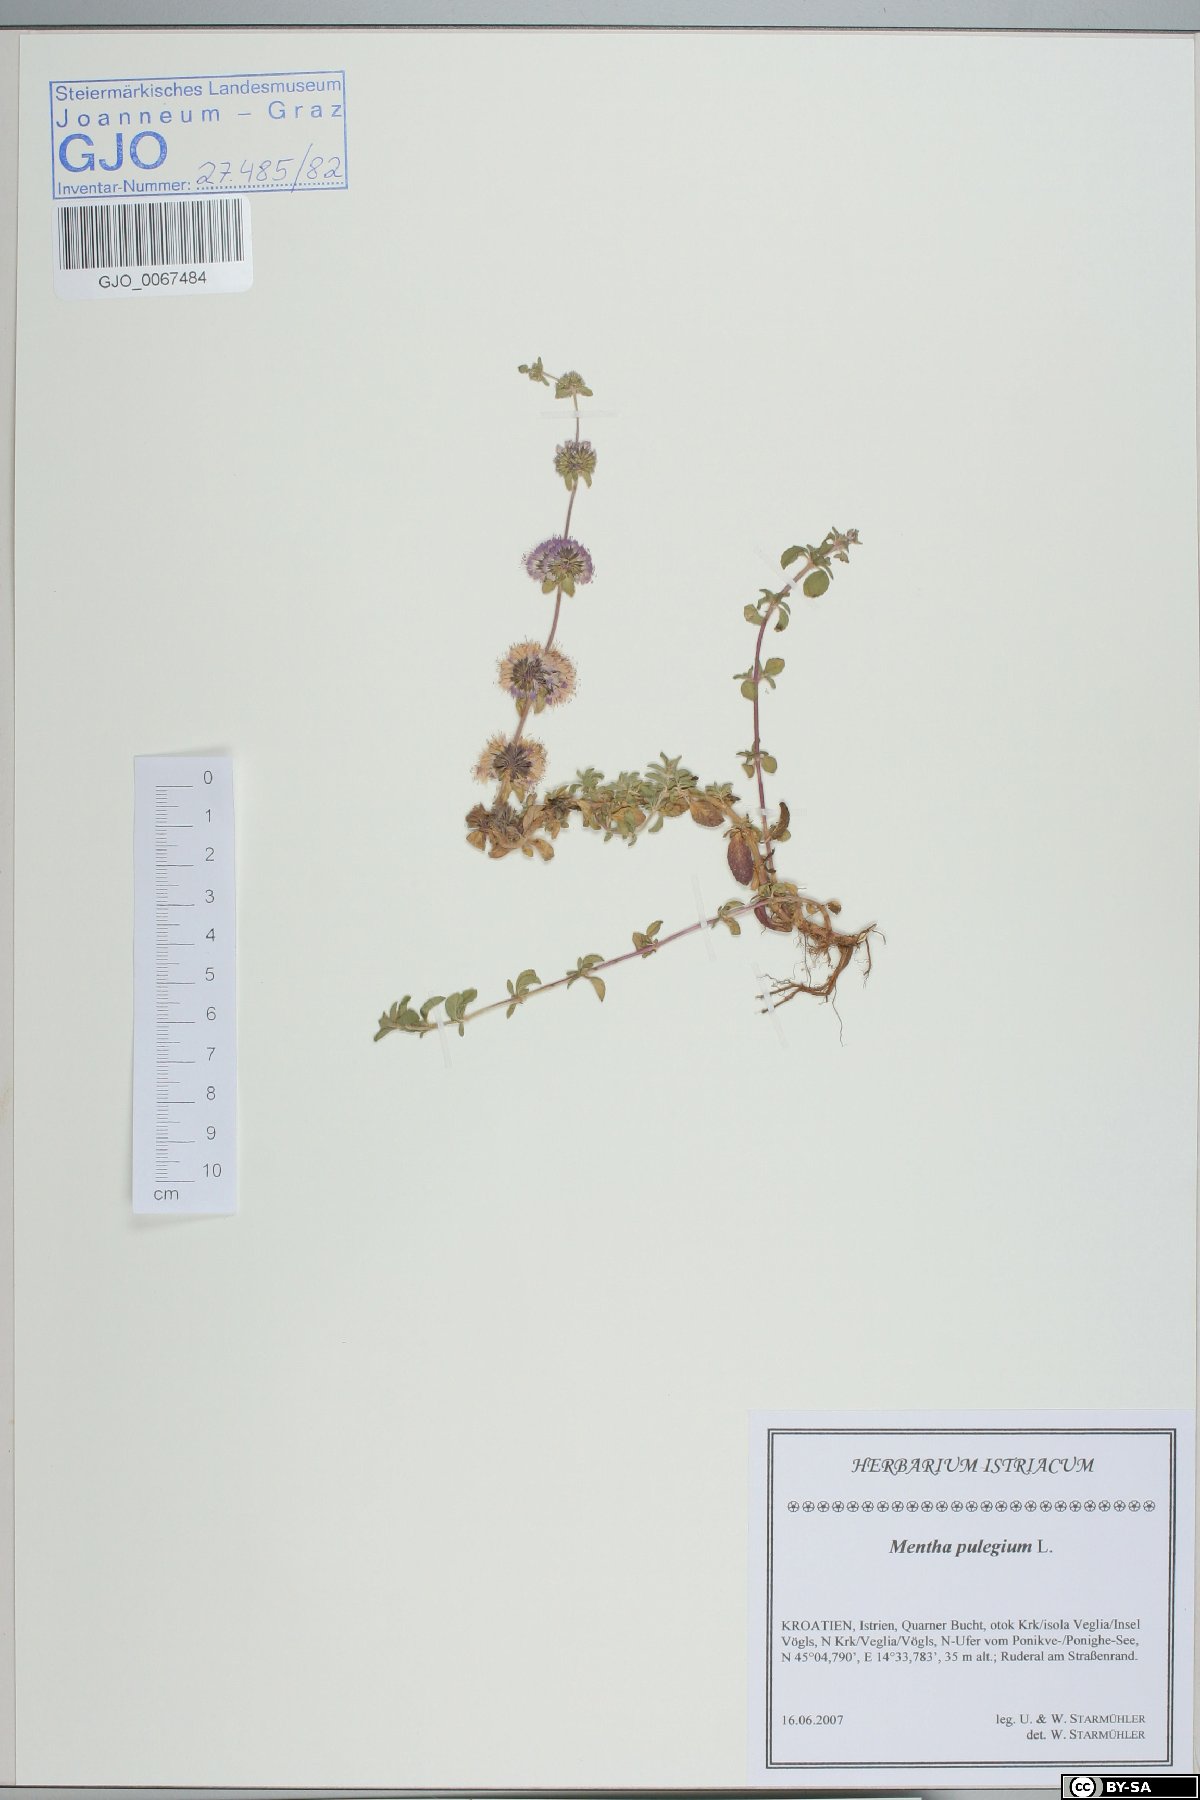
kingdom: Plantae
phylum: Tracheophyta
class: Magnoliopsida
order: Lamiales
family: Lamiaceae
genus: Mentha
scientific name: Mentha pulegium
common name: Pennyroyal
